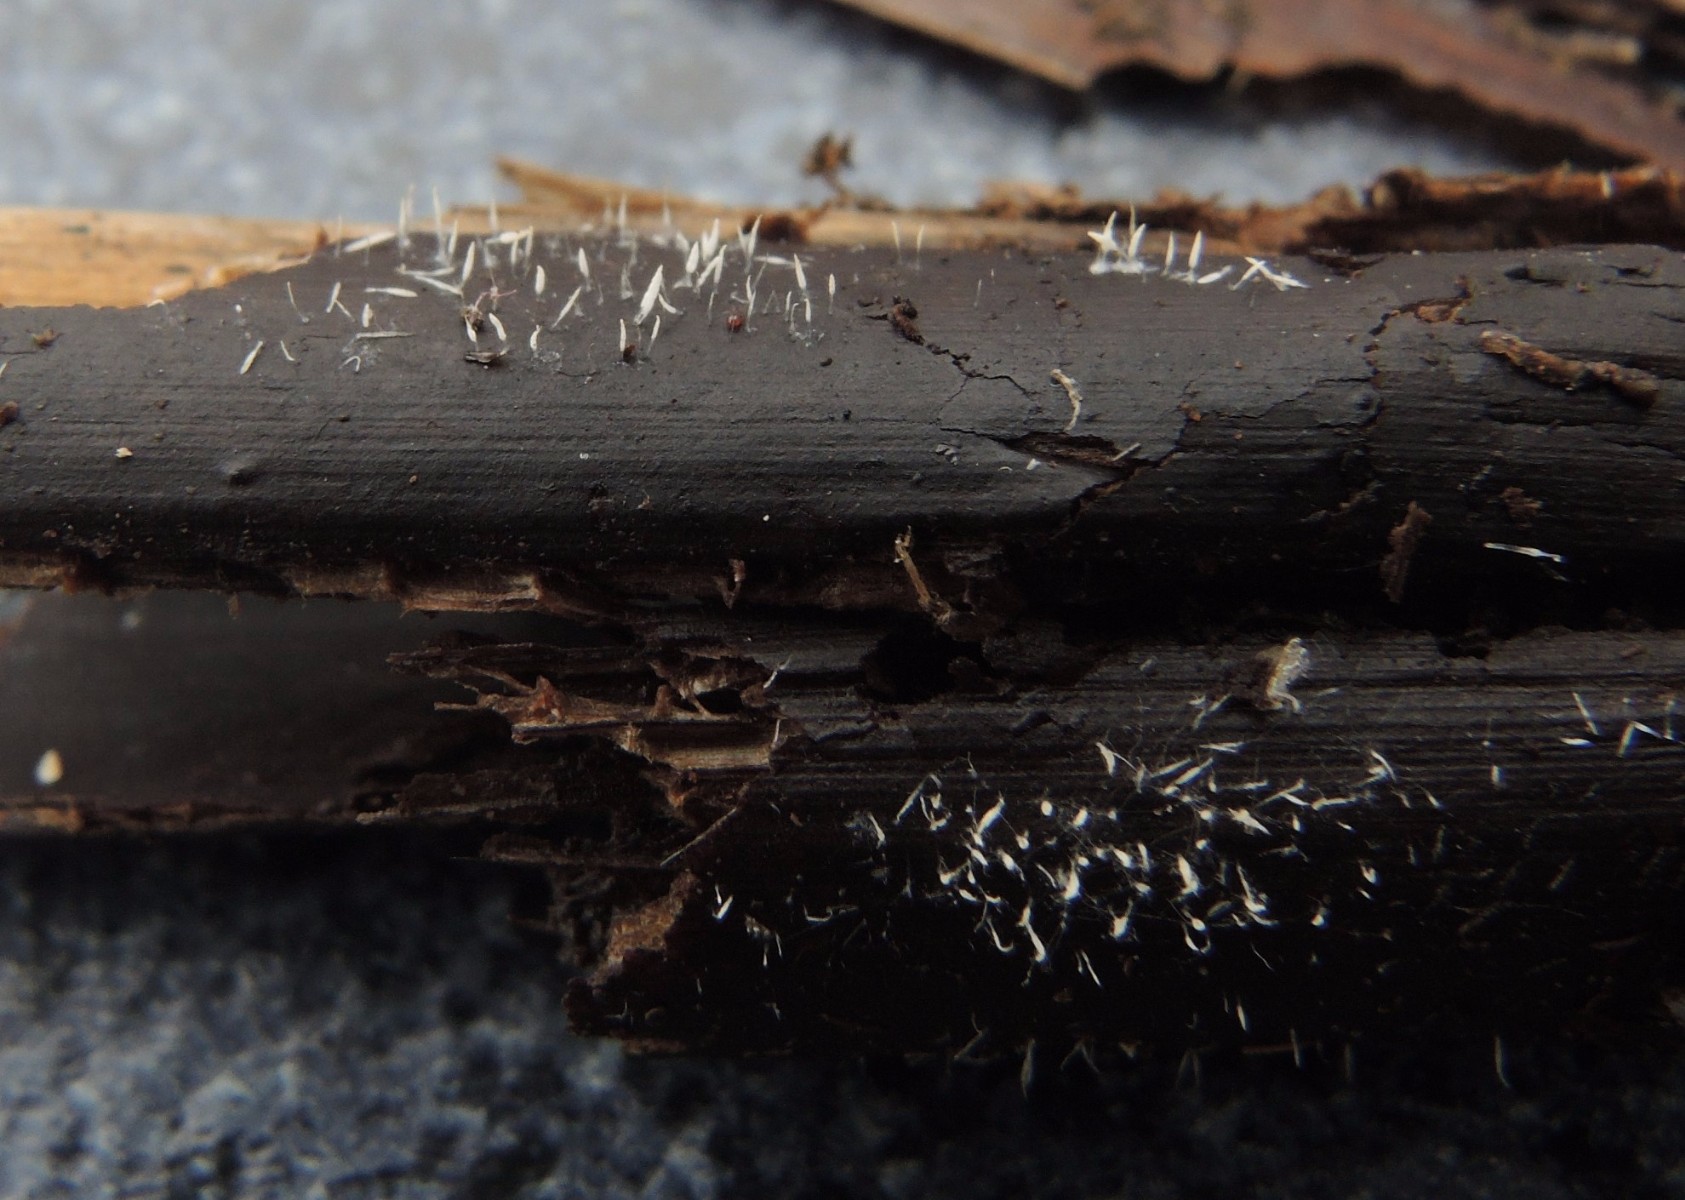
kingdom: Fungi
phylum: Basidiomycota
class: Agaricomycetes
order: Gomphales
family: Gomphaceae
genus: Ceratellopsis
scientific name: Ceratellopsis aculeata
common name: avneknippe-sylkølle
